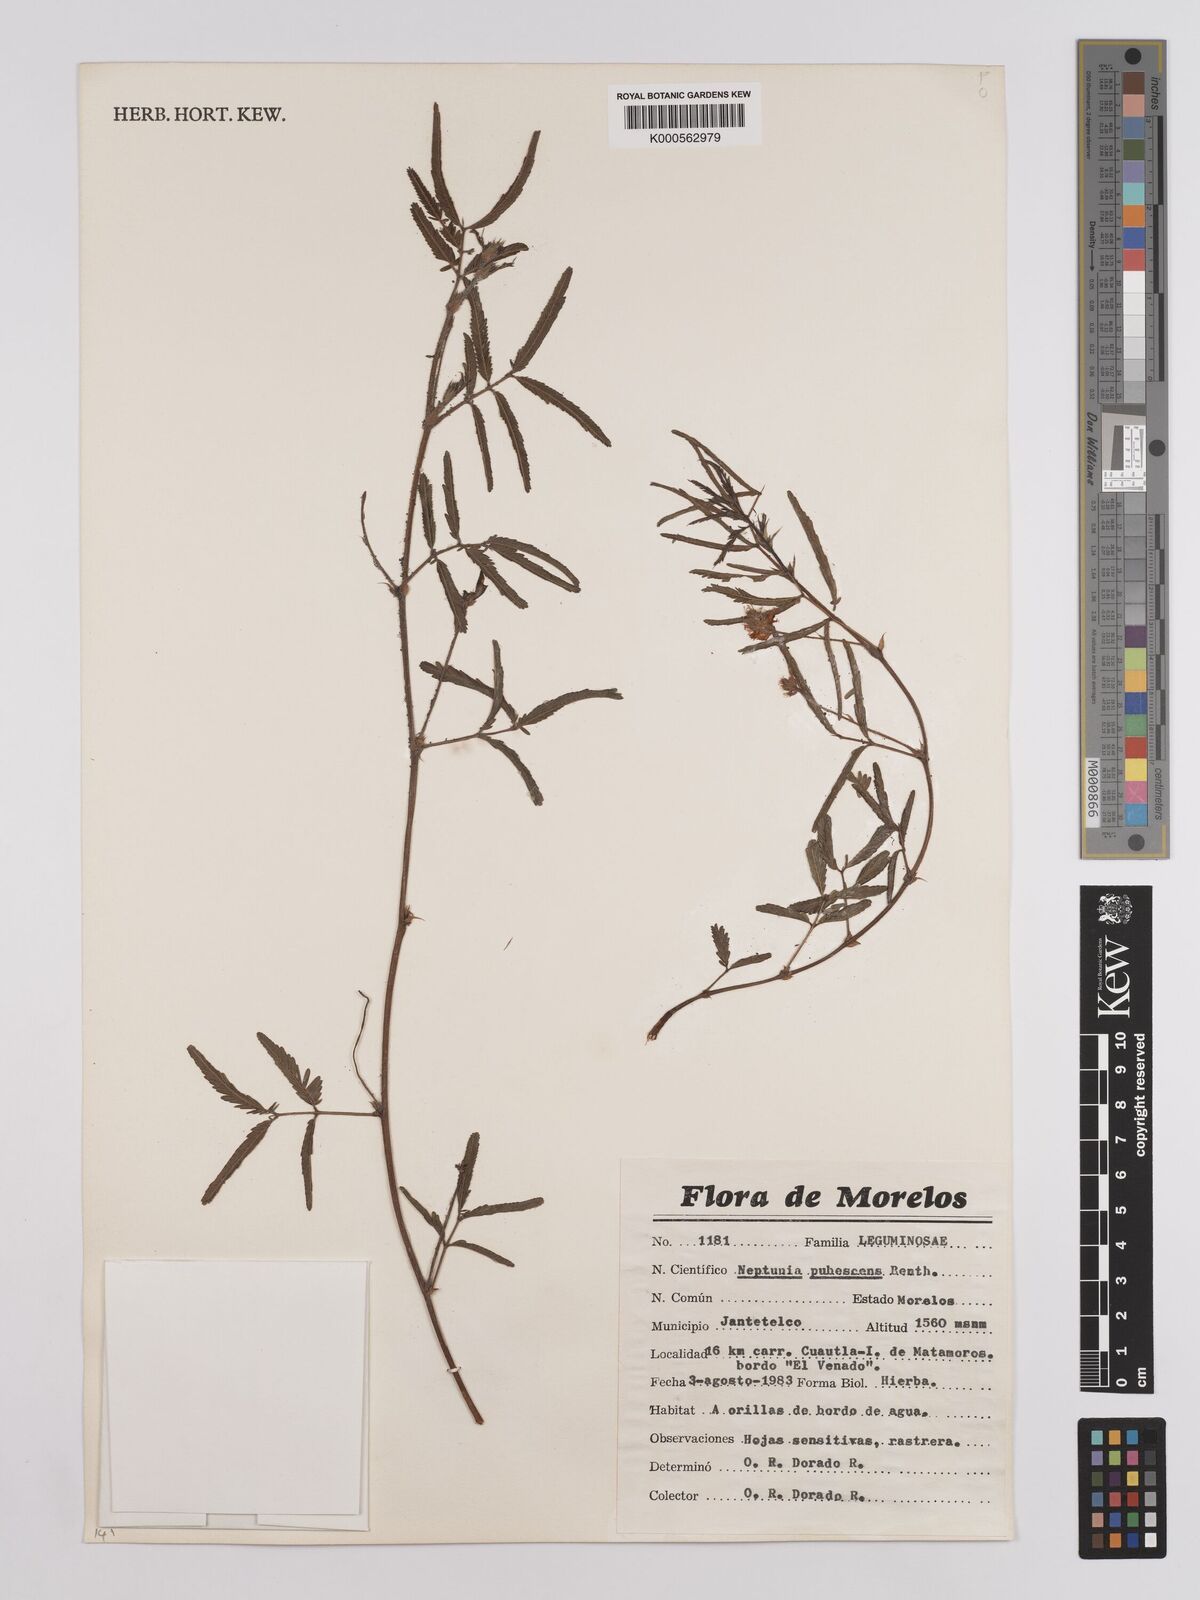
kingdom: Plantae
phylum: Tracheophyta
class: Magnoliopsida
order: Fabales
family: Fabaceae
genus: Neptunia
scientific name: Neptunia pubescens
